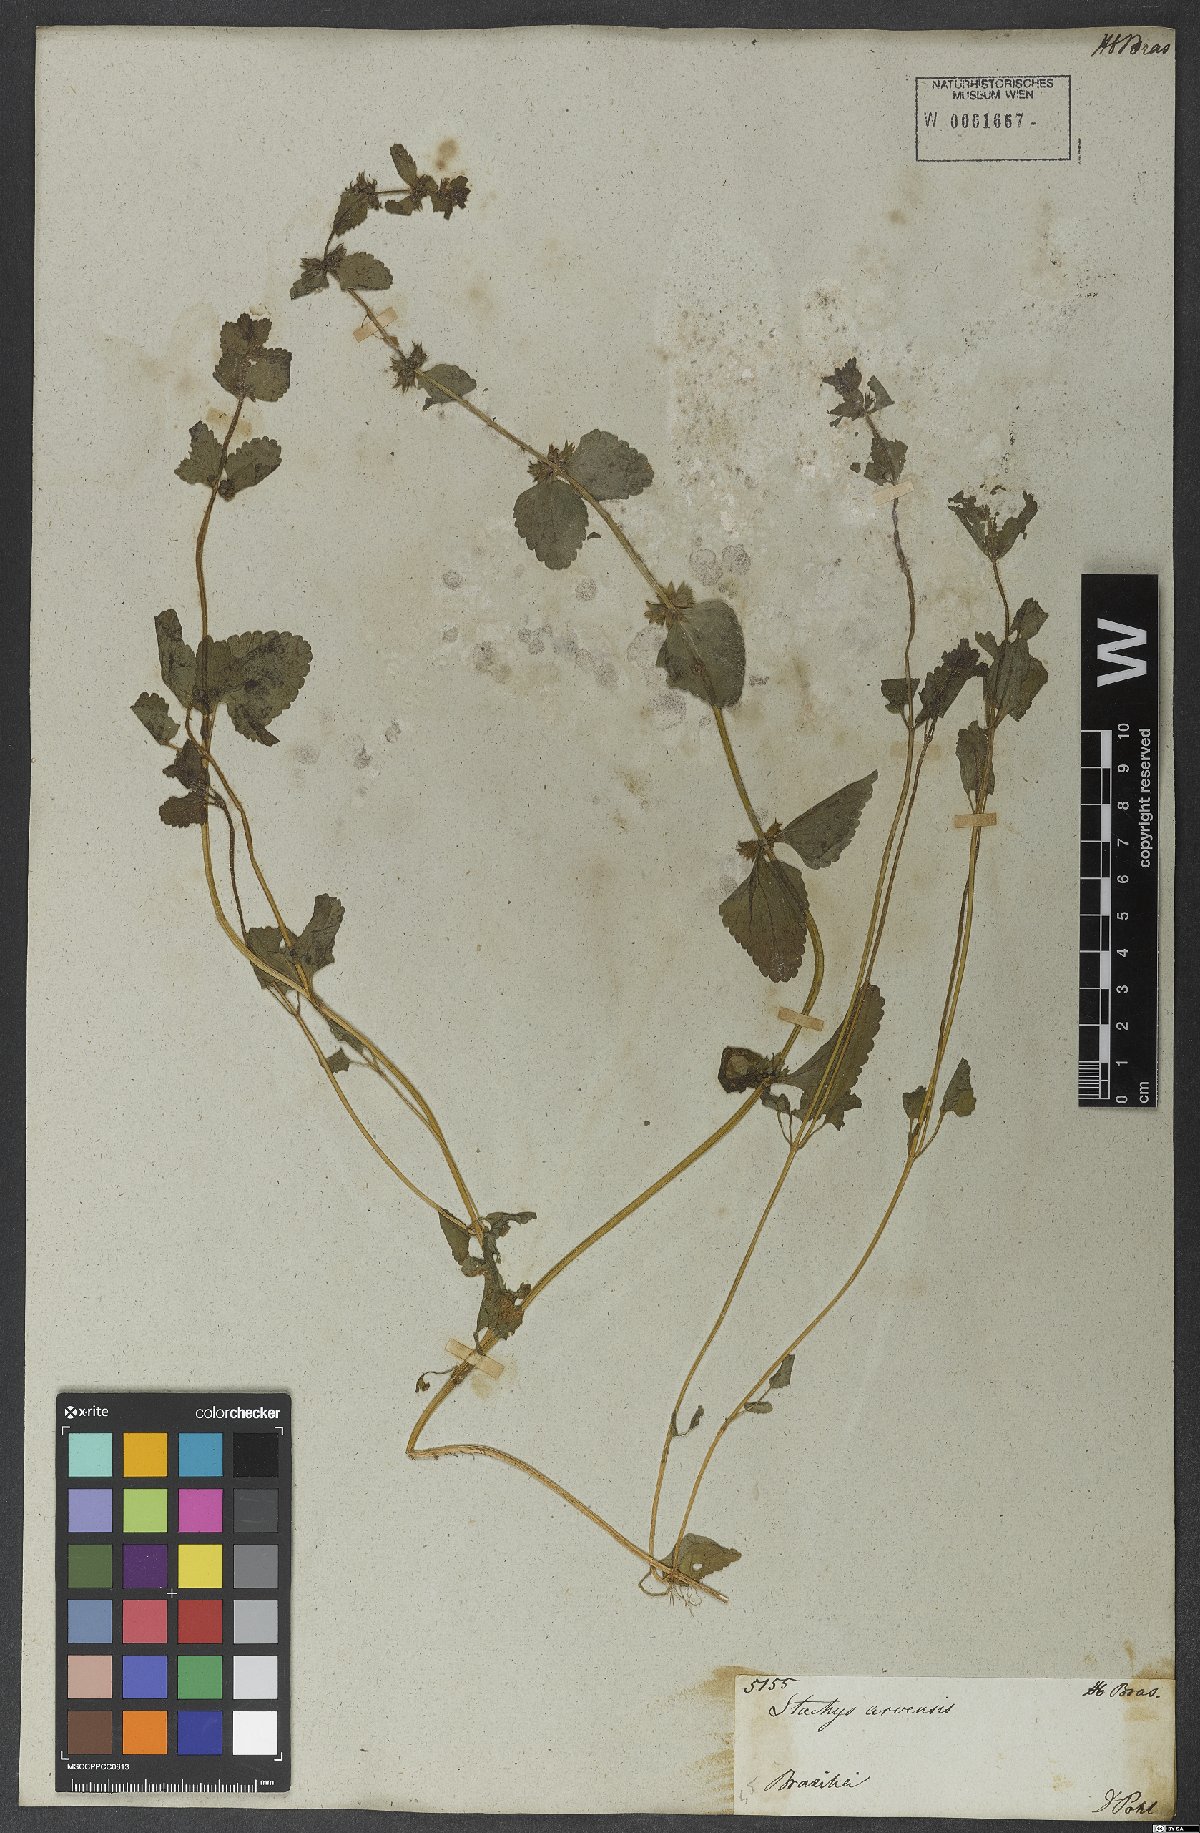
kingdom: Plantae
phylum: Tracheophyta
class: Magnoliopsida
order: Lamiales
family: Lamiaceae
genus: Stachys
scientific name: Stachys arvensis
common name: Field woundwort
